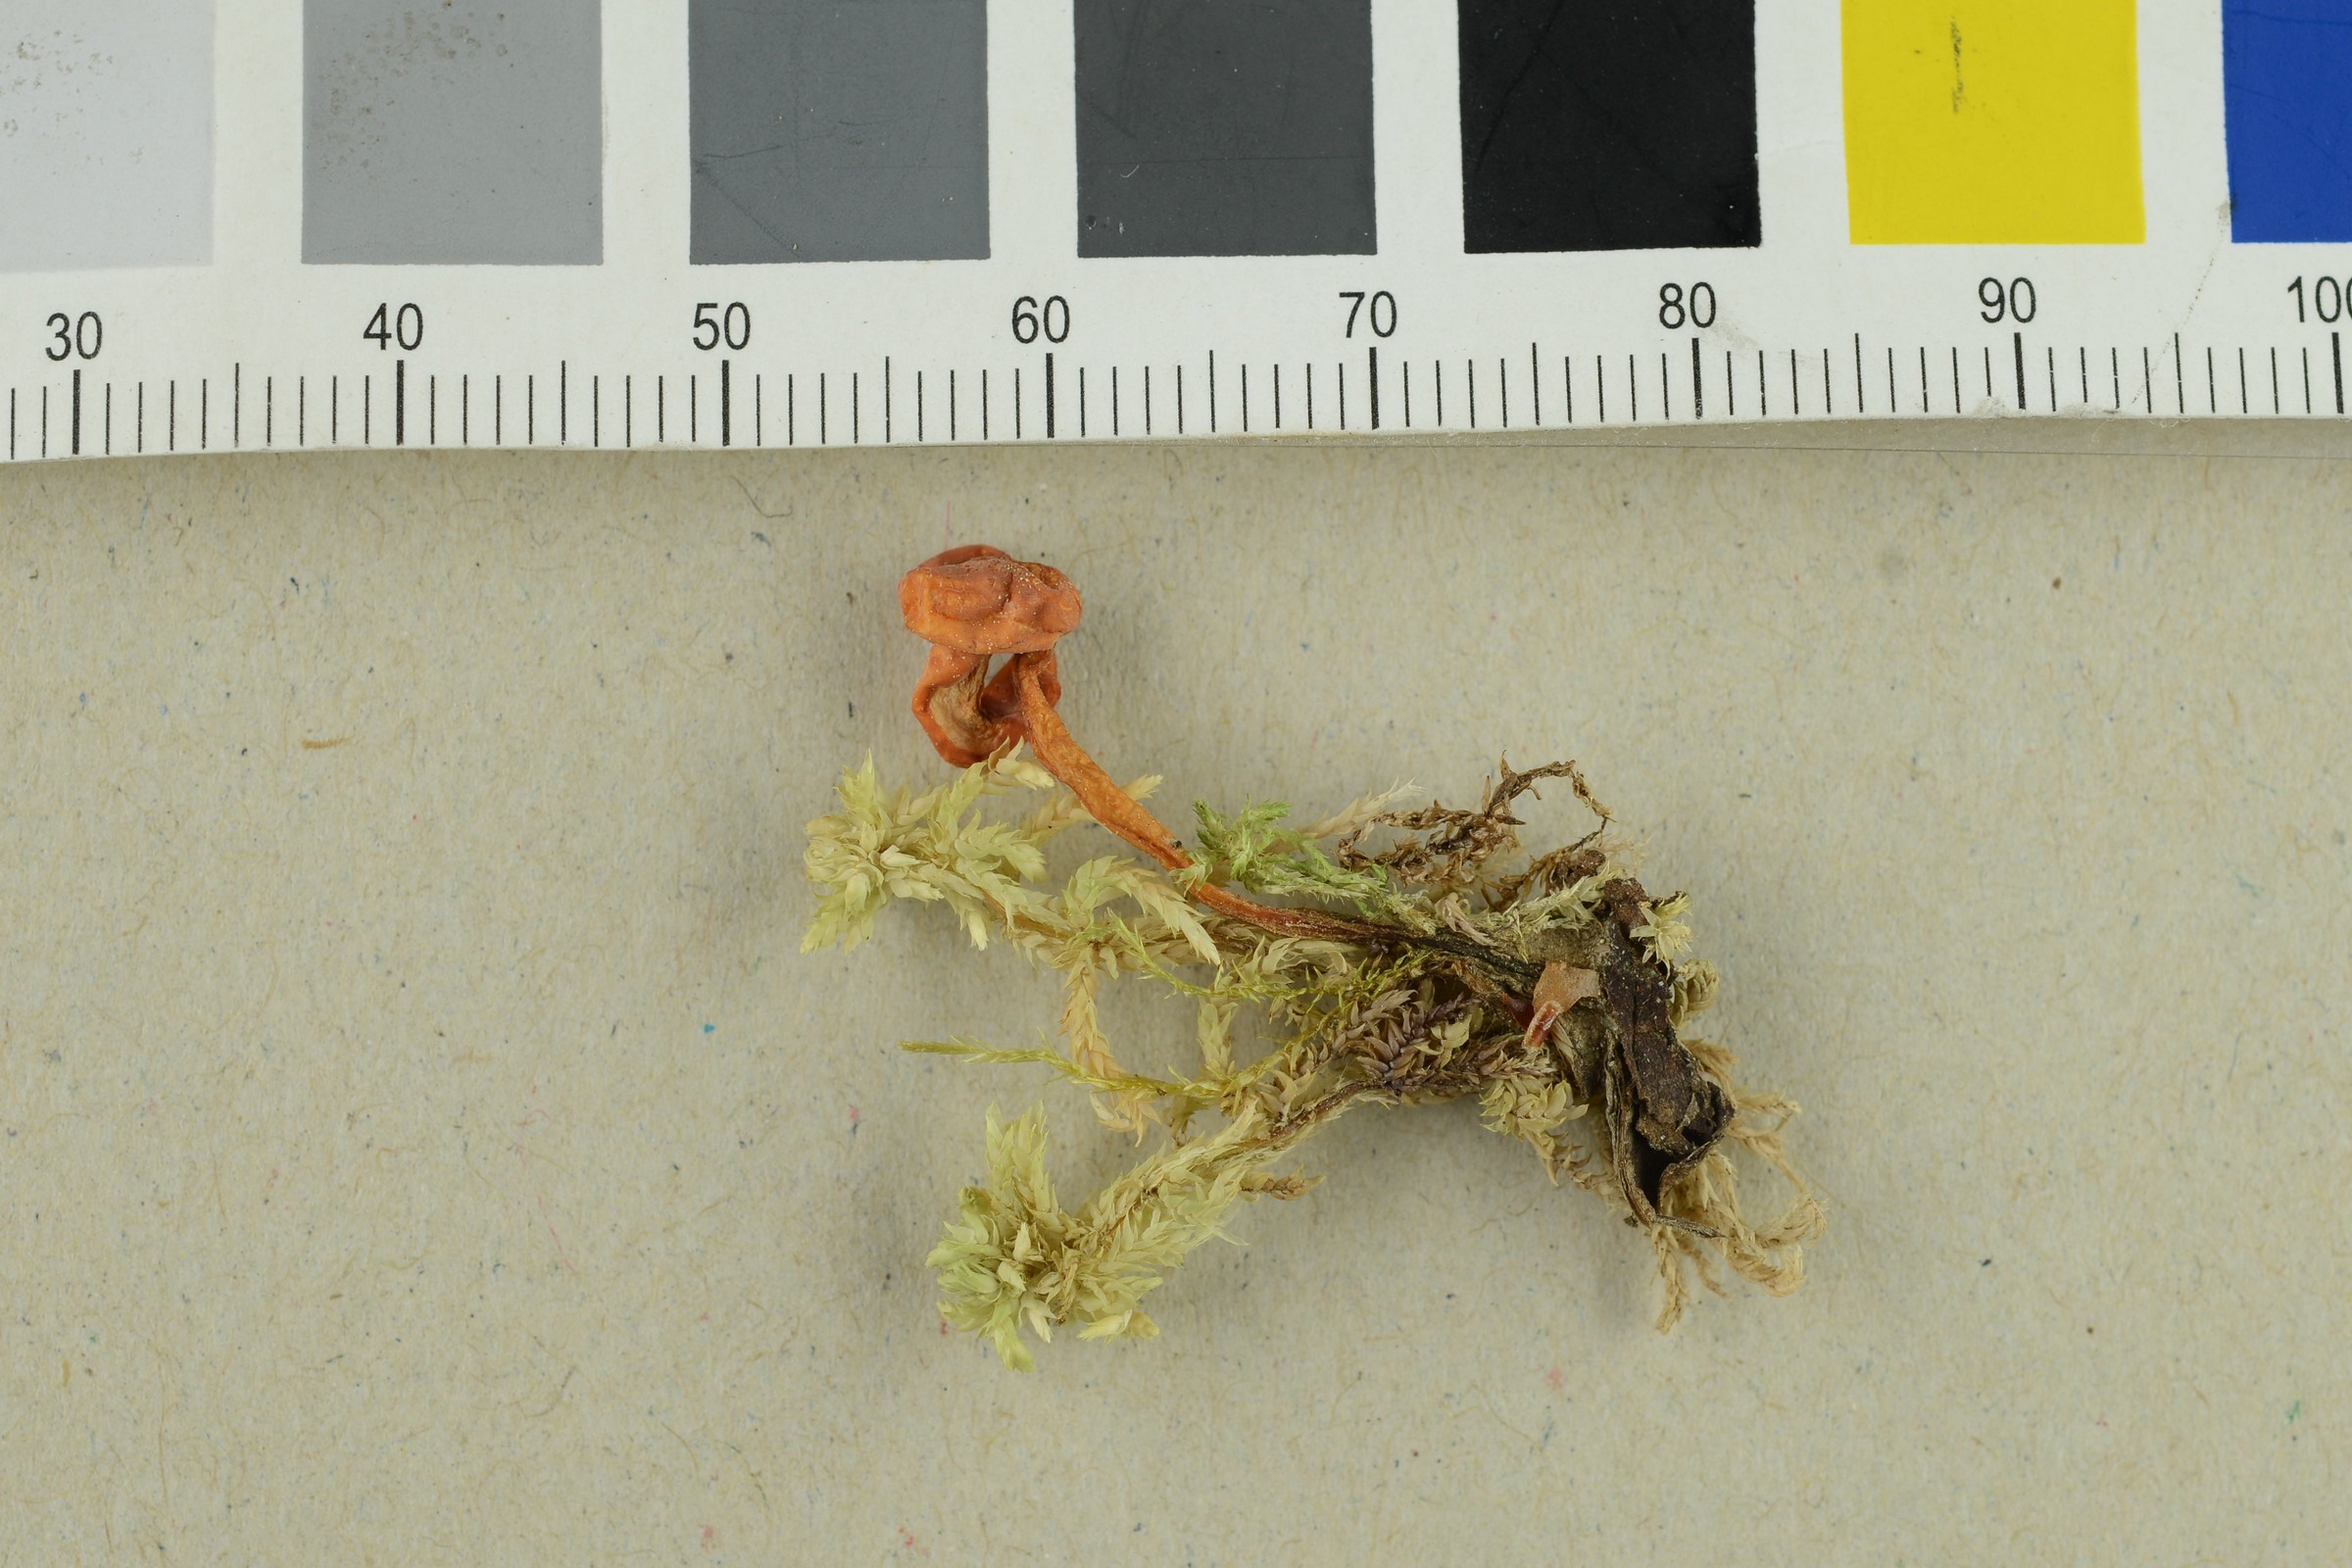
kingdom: Fungi
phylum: Ascomycota
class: Leotiomycetes
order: Helotiales
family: Cenangiaceae
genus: Mitrula
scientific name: Mitrula paludosa
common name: Bog beacon
